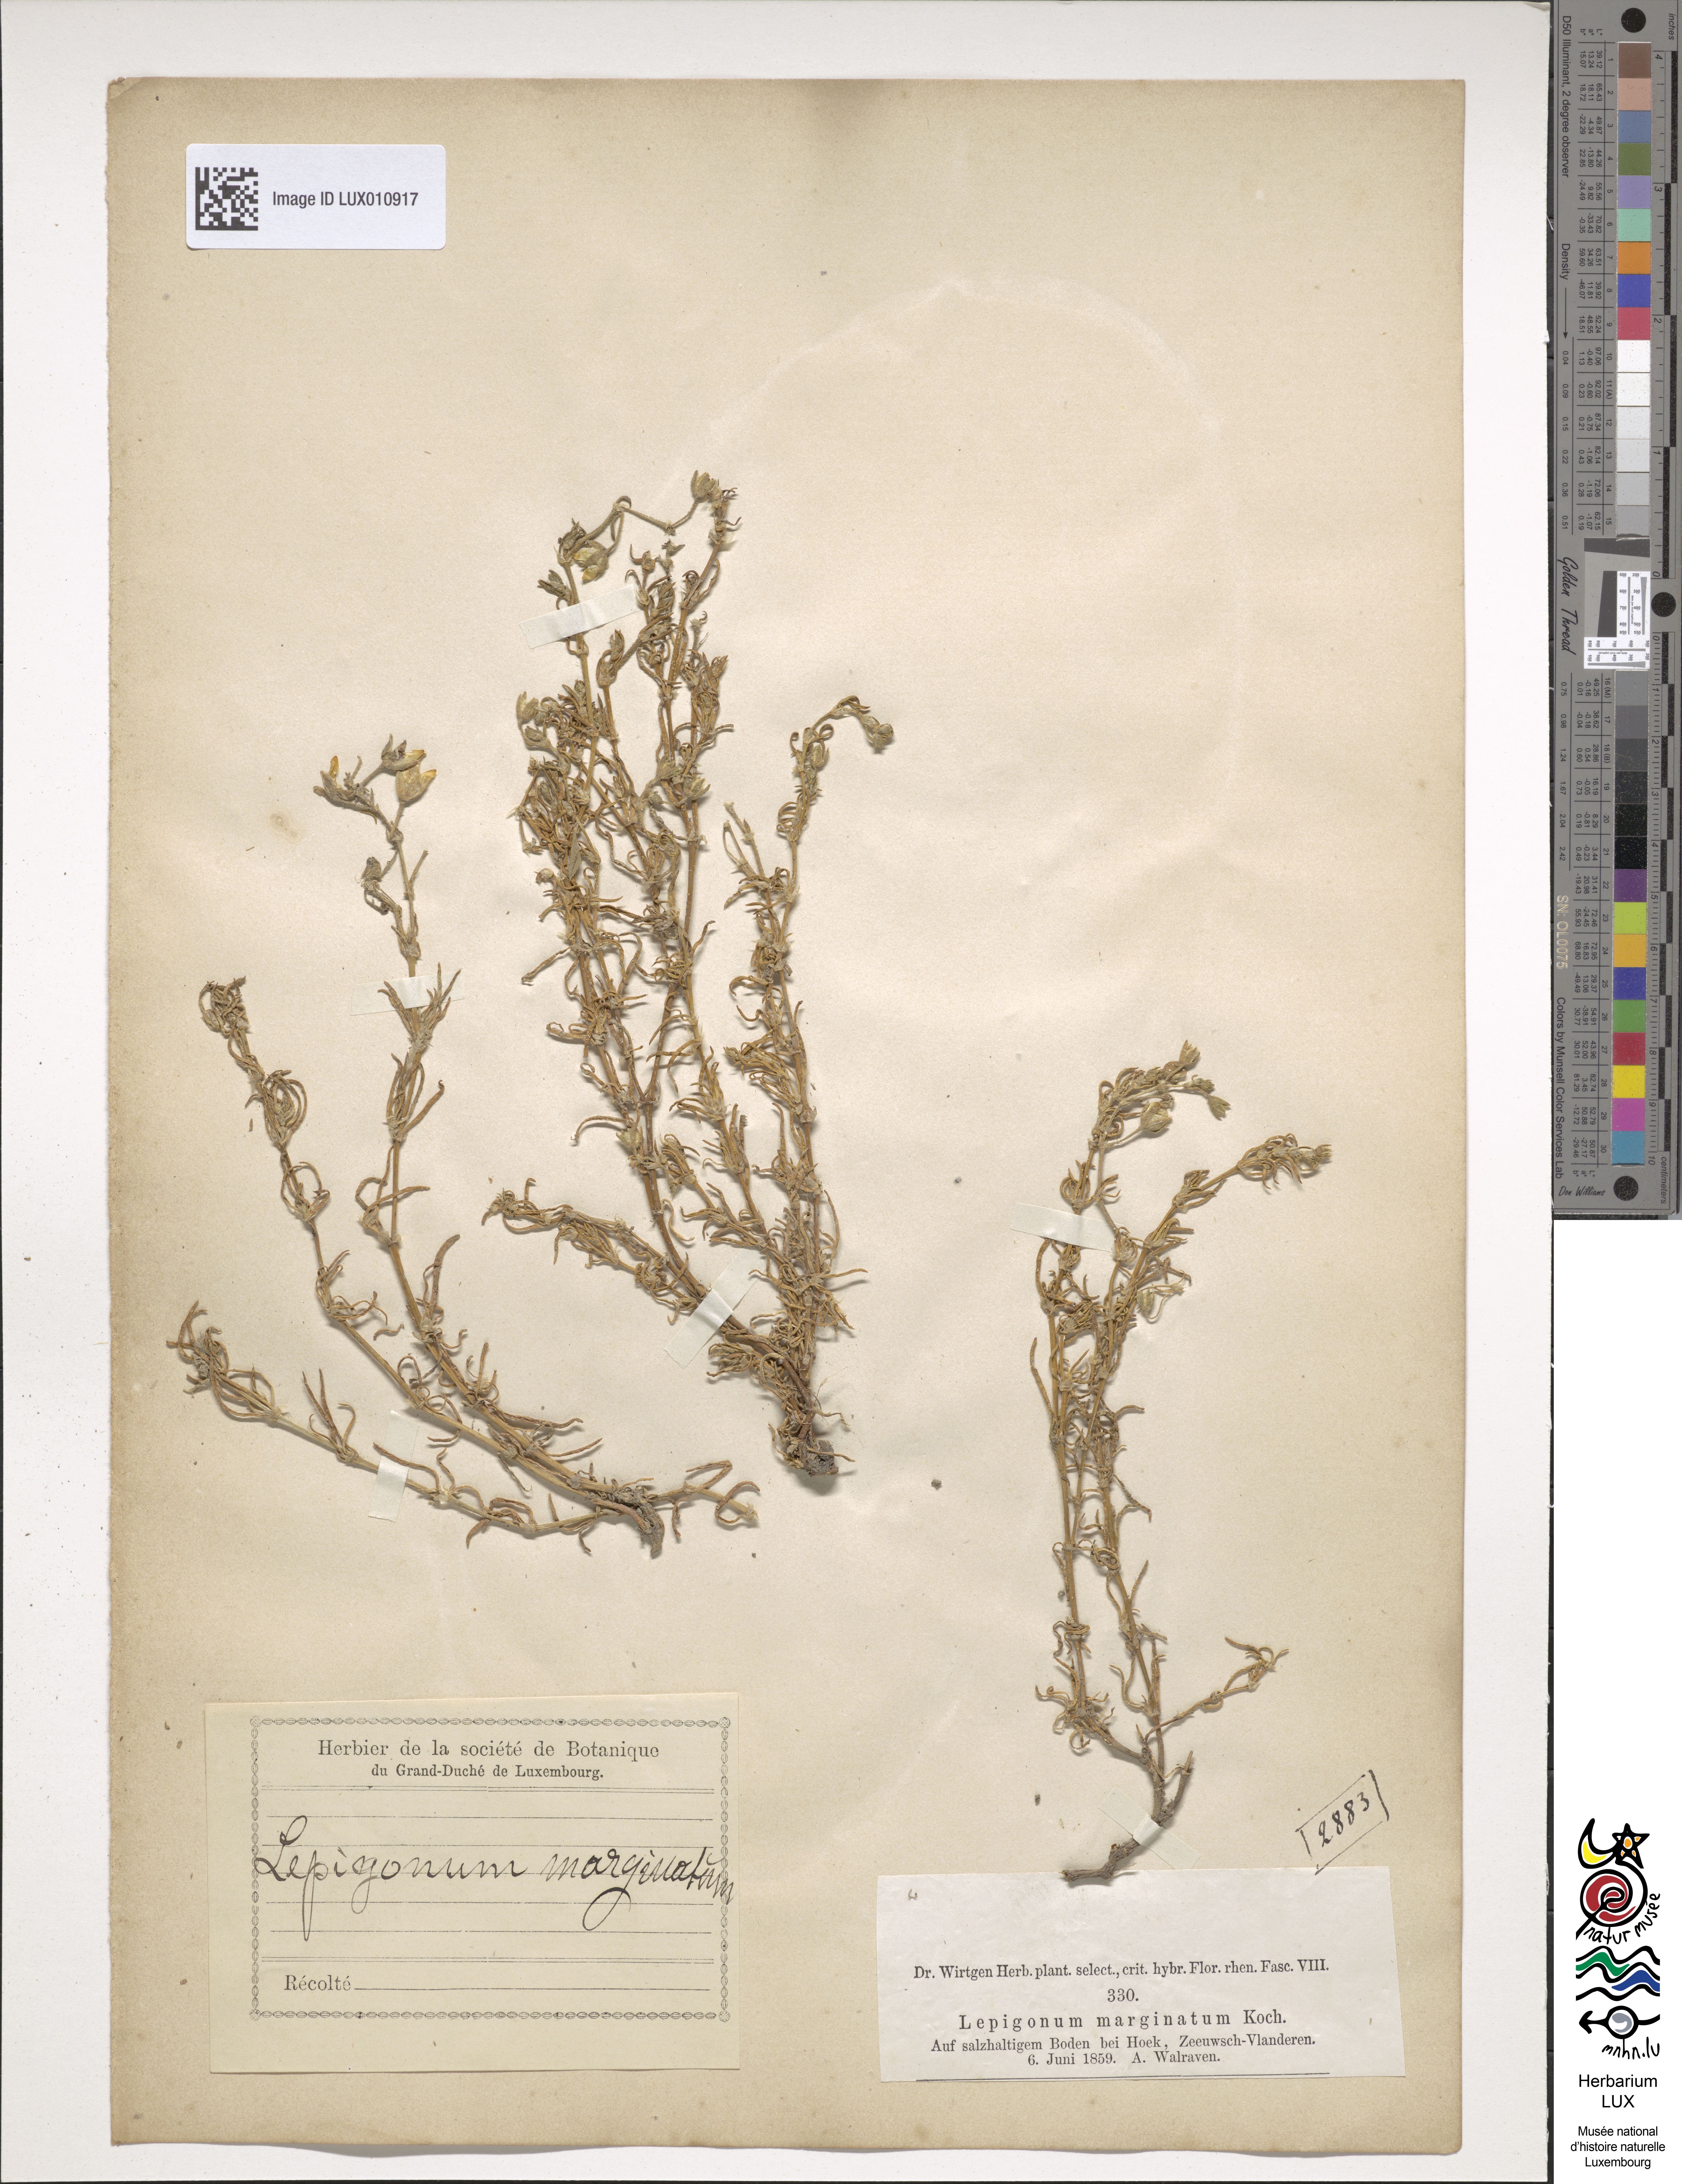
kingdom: Plantae
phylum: Tracheophyta
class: Magnoliopsida
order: Caryophyllales
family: Caryophyllaceae
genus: Spergularia
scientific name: Spergularia media
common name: Greater sea-spurrey
